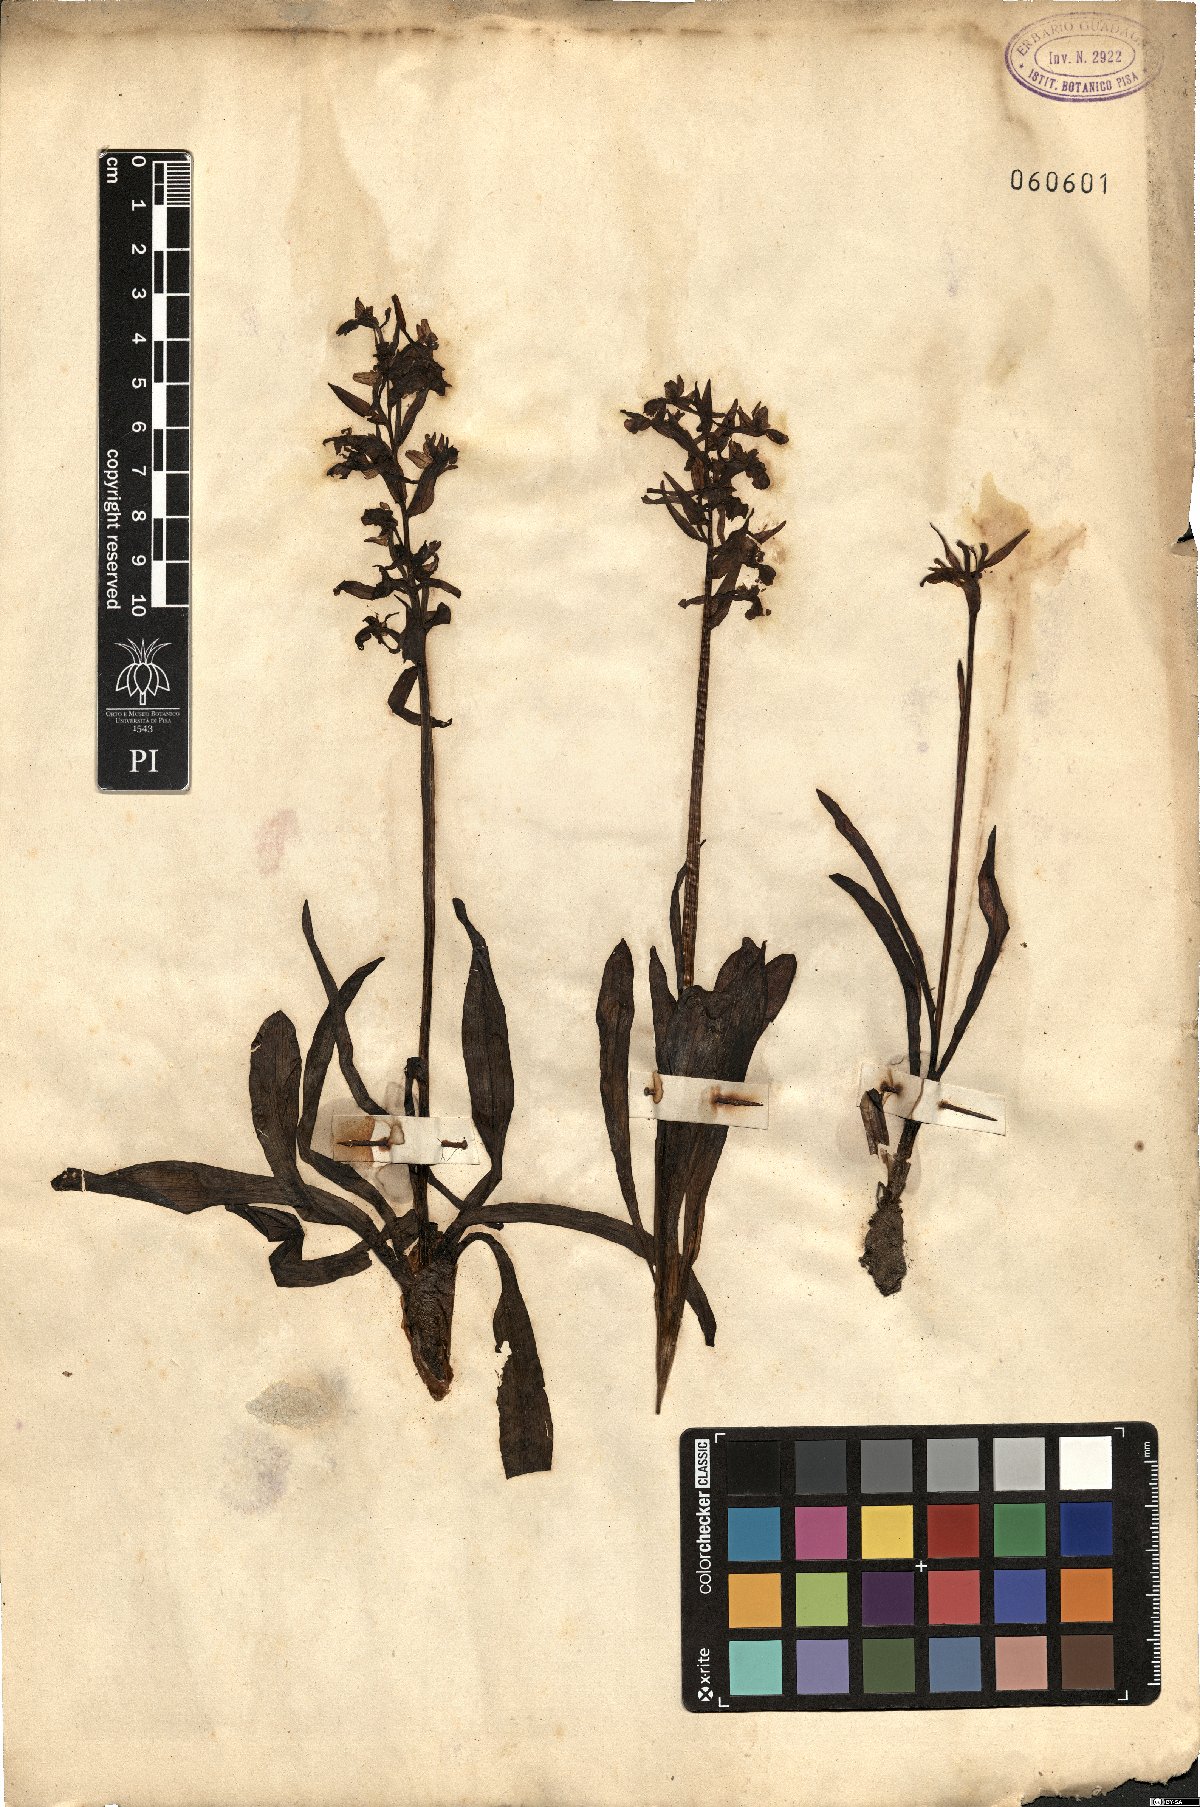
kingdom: Plantae
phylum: Tracheophyta
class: Liliopsida
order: Asparagales
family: Orchidaceae
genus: Orchis
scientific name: Orchis
